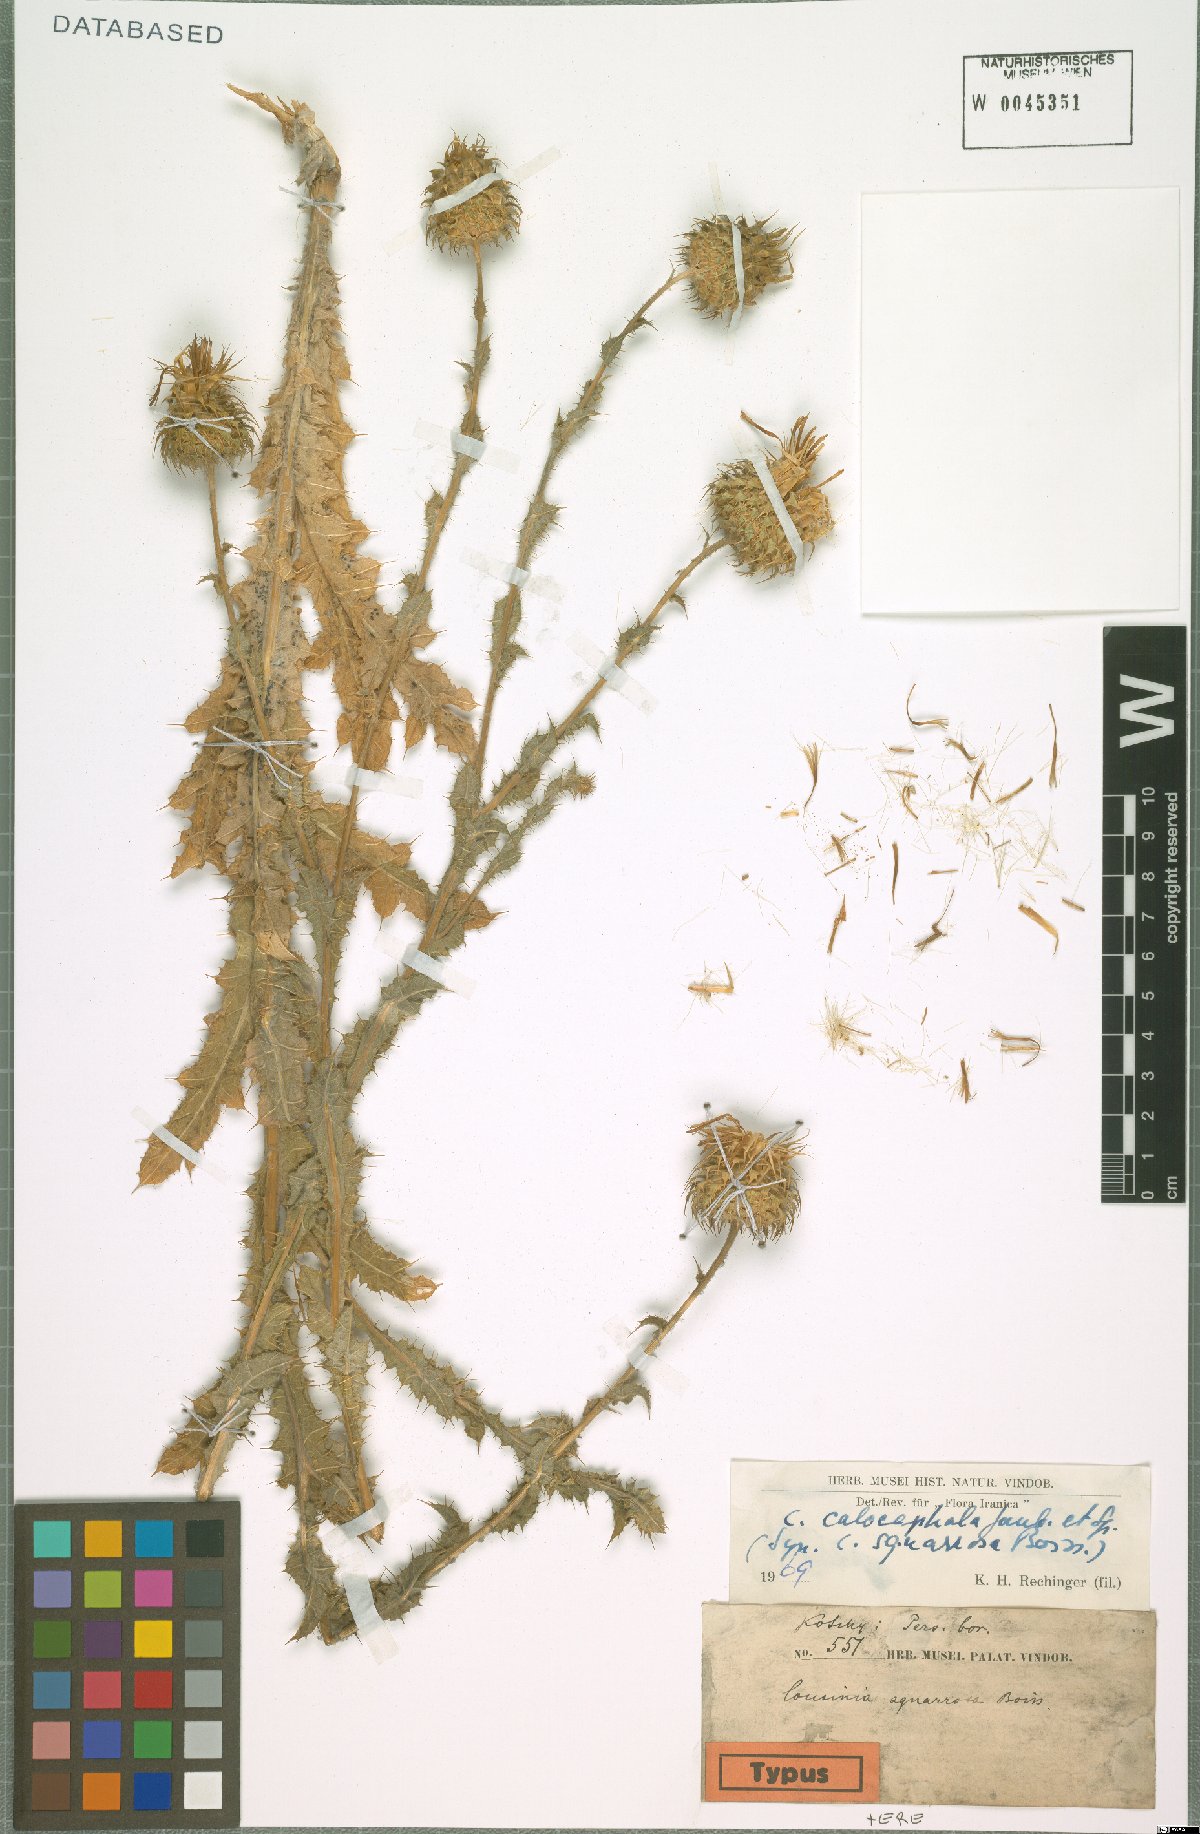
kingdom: Plantae
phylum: Tracheophyta
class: Magnoliopsida
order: Asterales
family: Asteraceae
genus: Cousinia
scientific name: Cousinia calocephala
